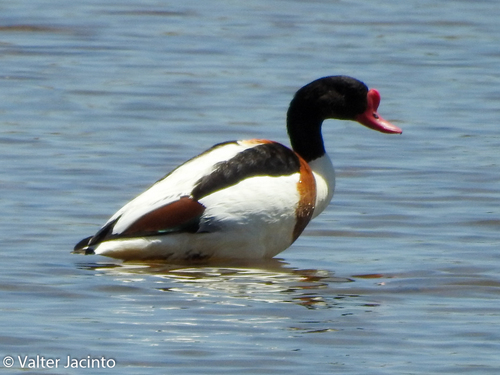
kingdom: Animalia
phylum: Chordata
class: Aves
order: Anseriformes
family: Anatidae
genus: Tadorna
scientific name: Tadorna tadorna
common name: Common shelduck
